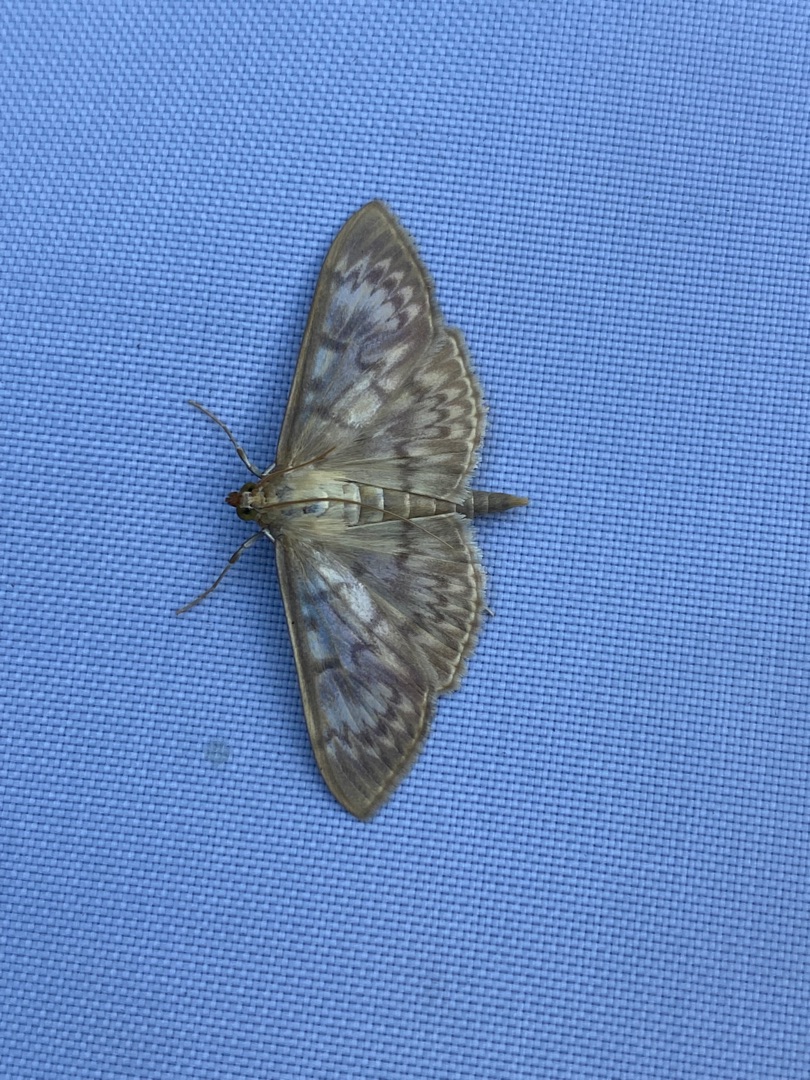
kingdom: Animalia
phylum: Arthropoda
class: Insecta
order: Lepidoptera
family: Crambidae
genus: Patania
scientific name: Patania ruralis
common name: Perlemorshalvmøl
